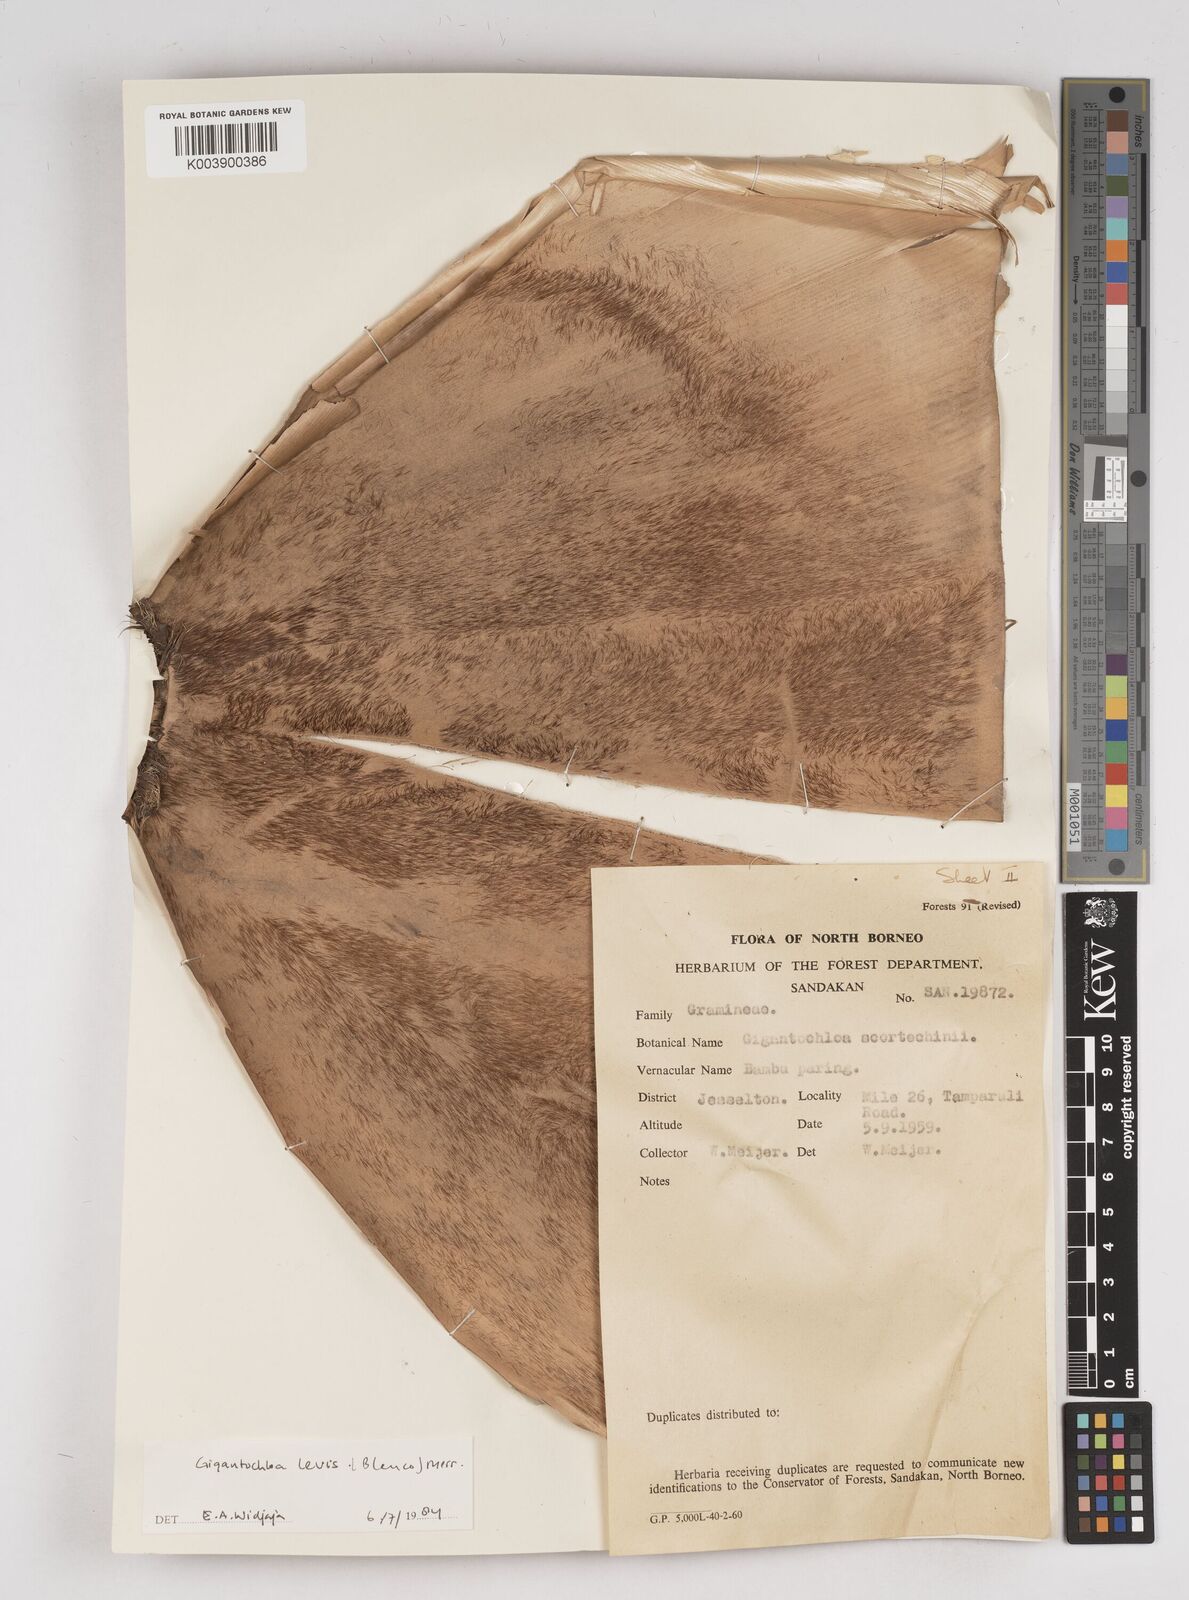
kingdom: Plantae
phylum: Tracheophyta
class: Liliopsida
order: Poales
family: Poaceae
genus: Gigantochloa
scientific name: Gigantochloa levis
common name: Smooth-shoot gigantochloa
